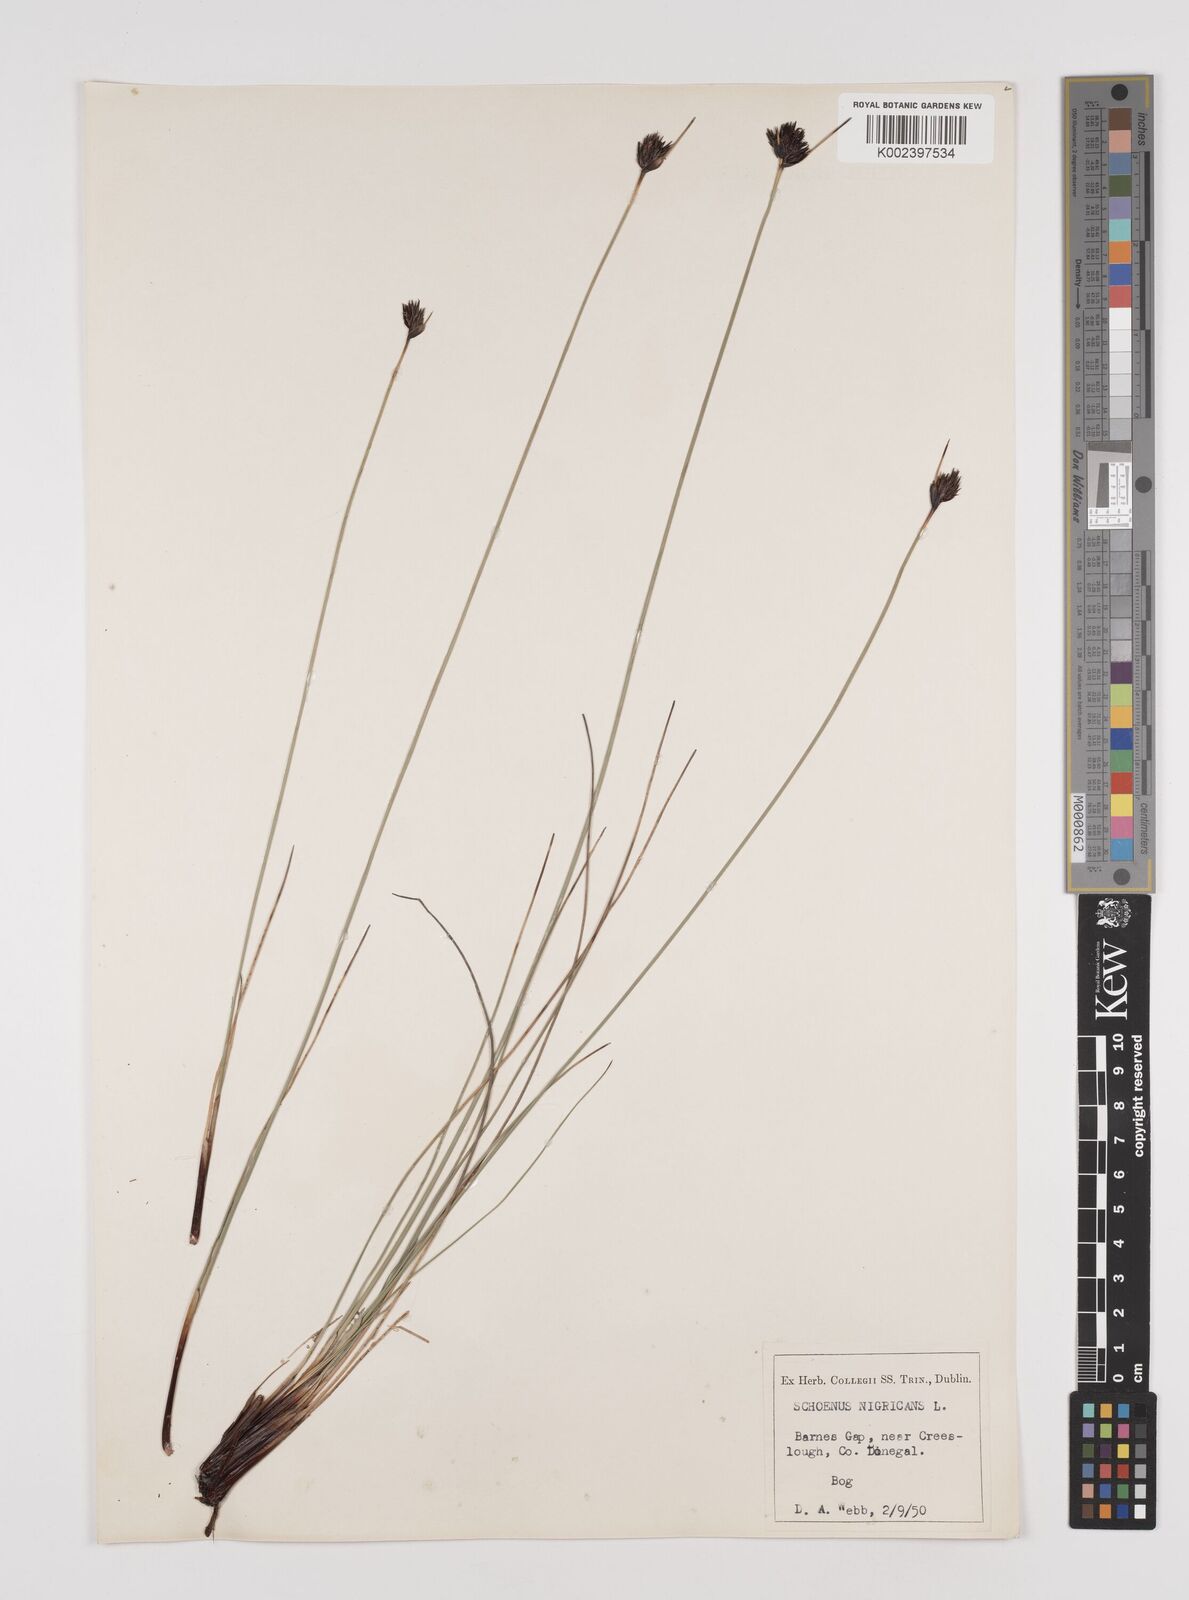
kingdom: Plantae
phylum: Tracheophyta
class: Liliopsida
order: Poales
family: Cyperaceae
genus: Schoenus
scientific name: Schoenus nigricans
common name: Black bog-rush
